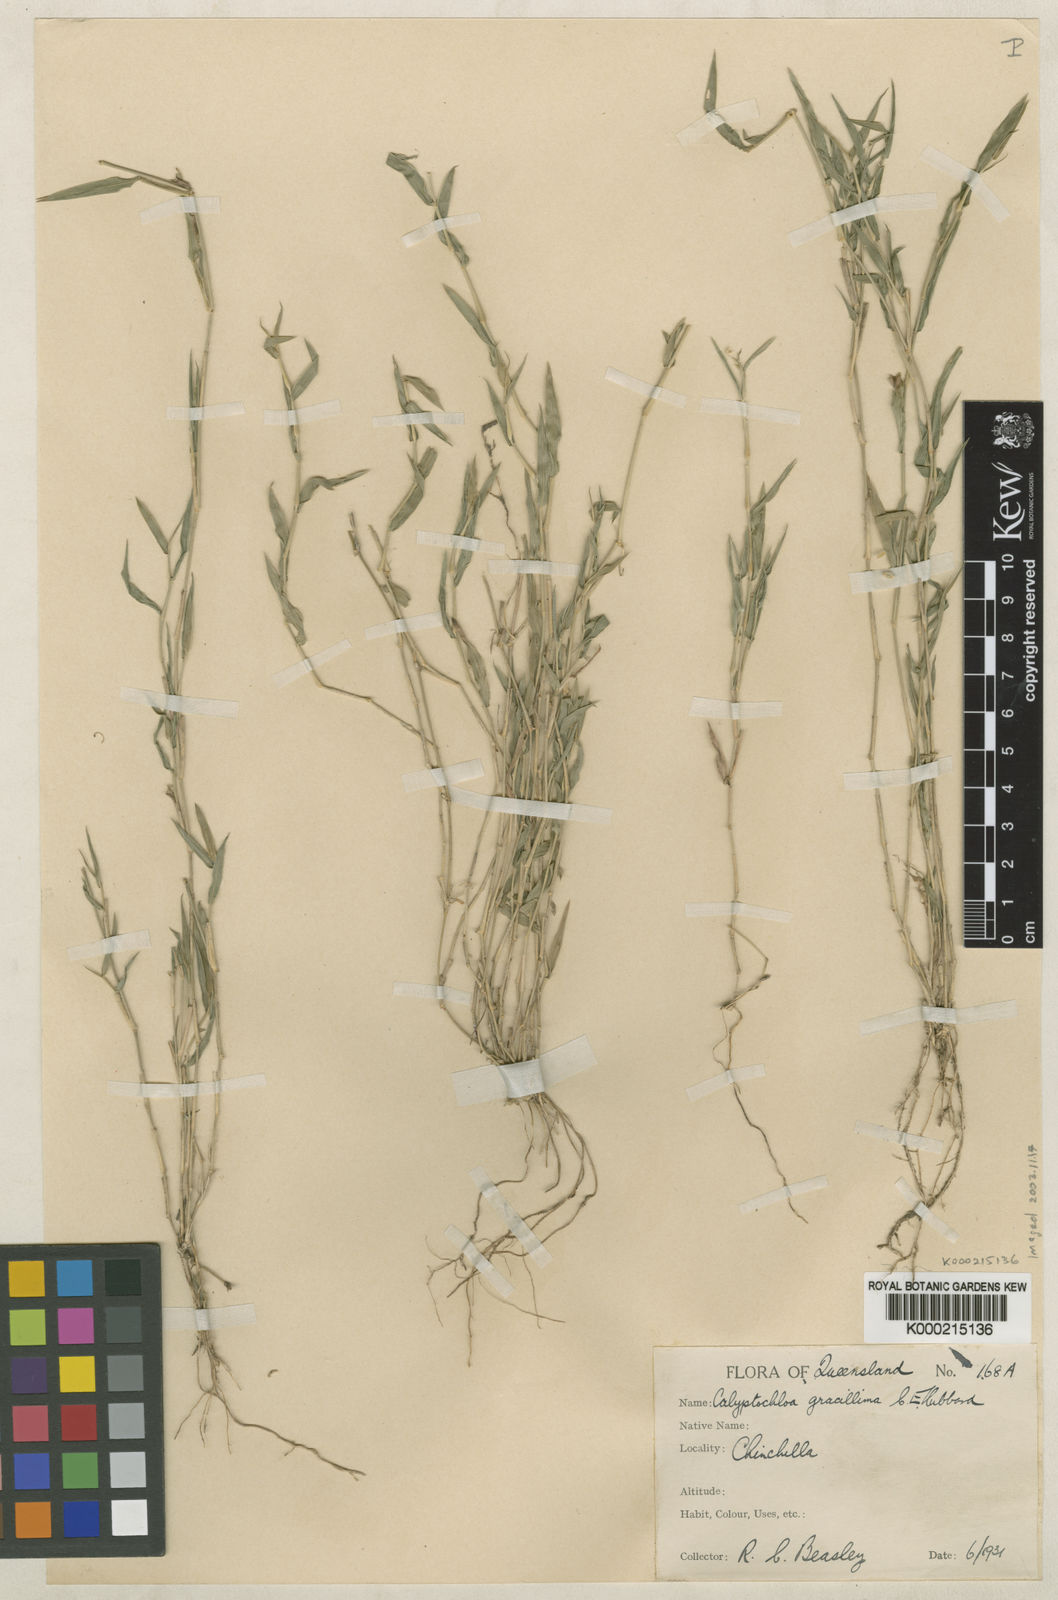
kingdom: Plantae
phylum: Tracheophyta
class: Liliopsida
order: Poales
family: Poaceae
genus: Calyptochloa
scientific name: Calyptochloa gracillima
